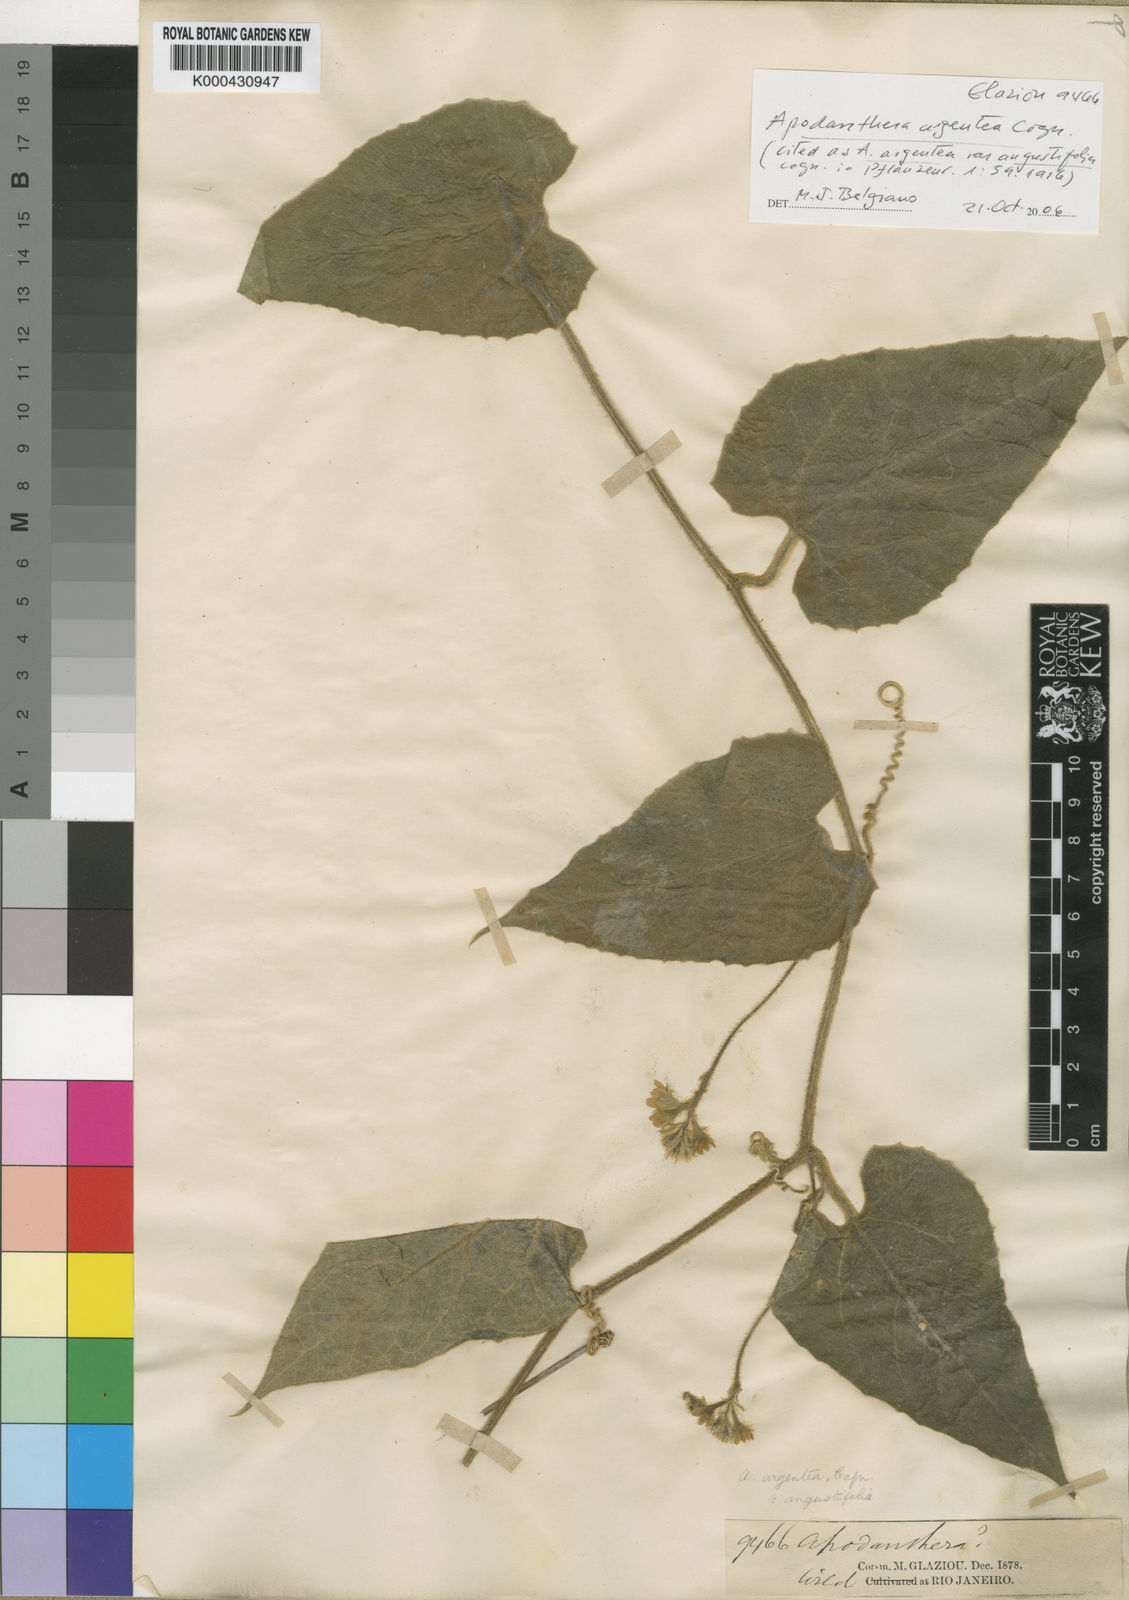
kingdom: Plantae
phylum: Tracheophyta
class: Magnoliopsida
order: Cucurbitales
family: Cucurbitaceae
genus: Apodanthera
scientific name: Apodanthera argentea
